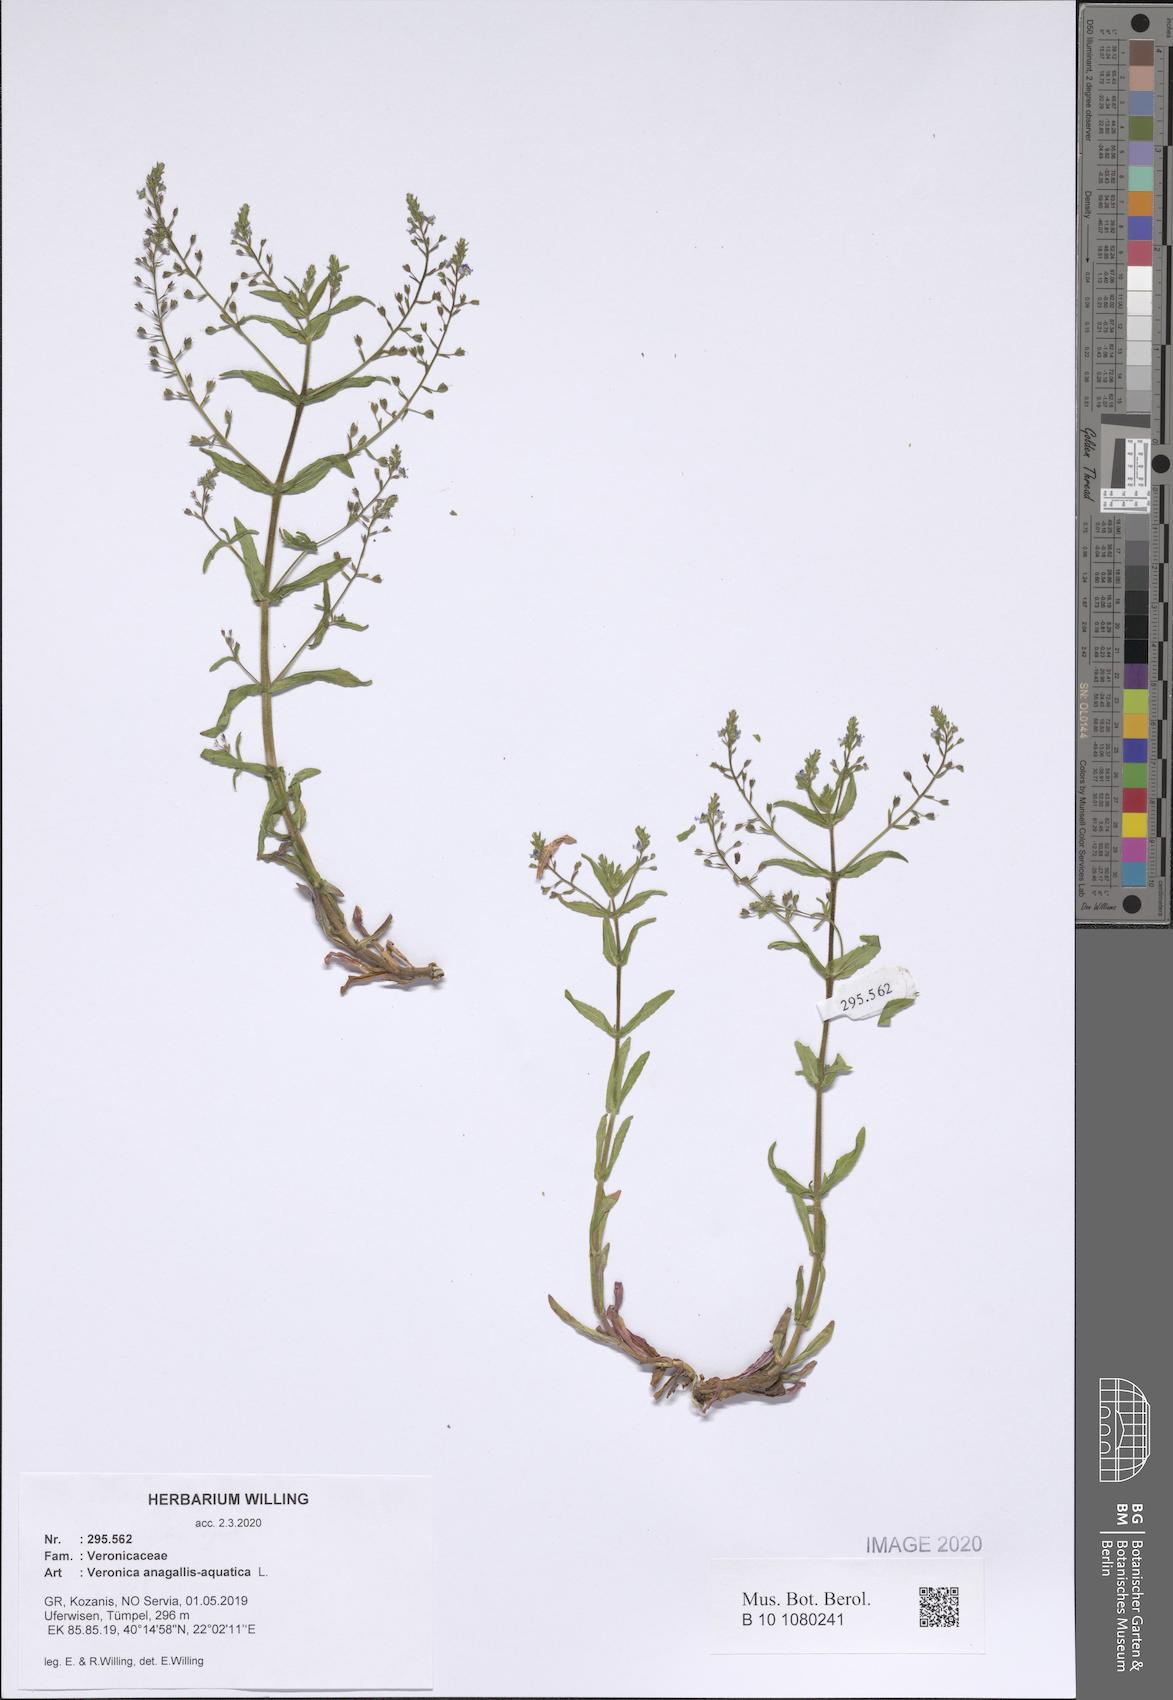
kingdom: Plantae
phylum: Tracheophyta
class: Magnoliopsida
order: Lamiales
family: Plantaginaceae
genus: Veronica
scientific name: Veronica anagallis-aquatica
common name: Water speedwell
